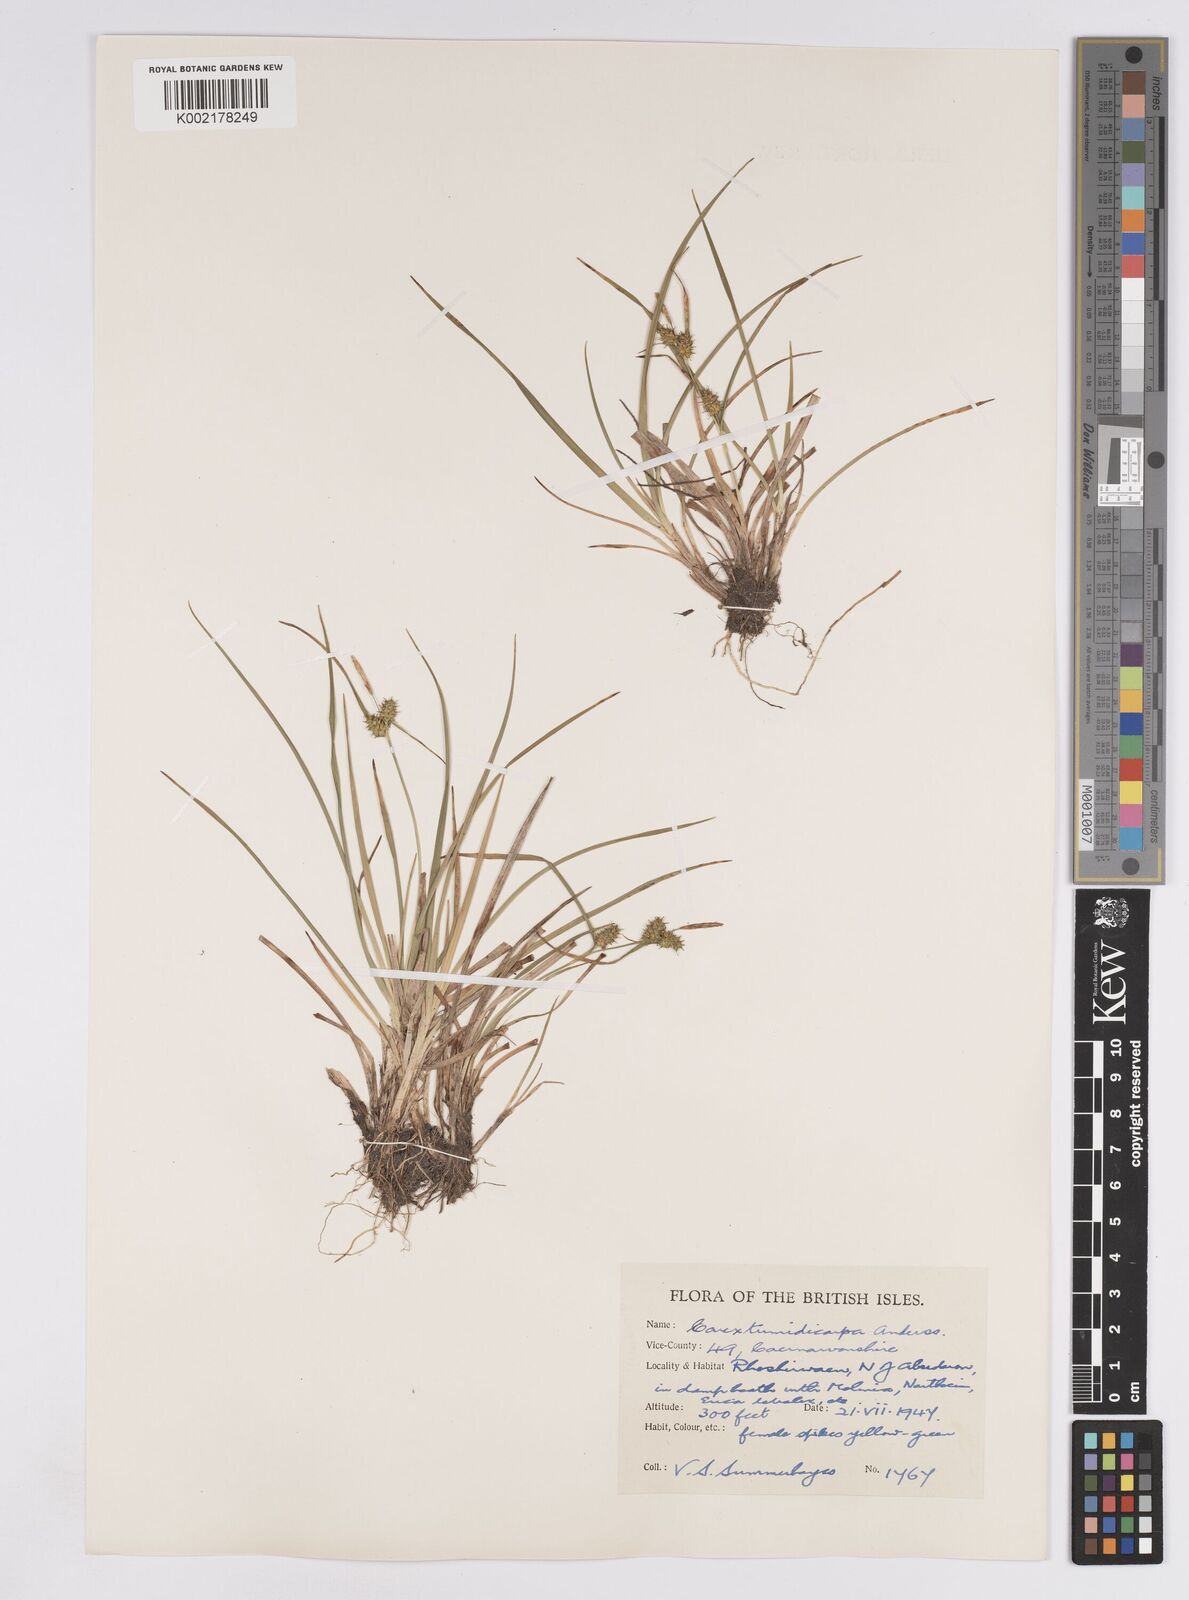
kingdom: Plantae
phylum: Tracheophyta
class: Liliopsida
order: Poales
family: Cyperaceae
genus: Carex
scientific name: Carex demissa
